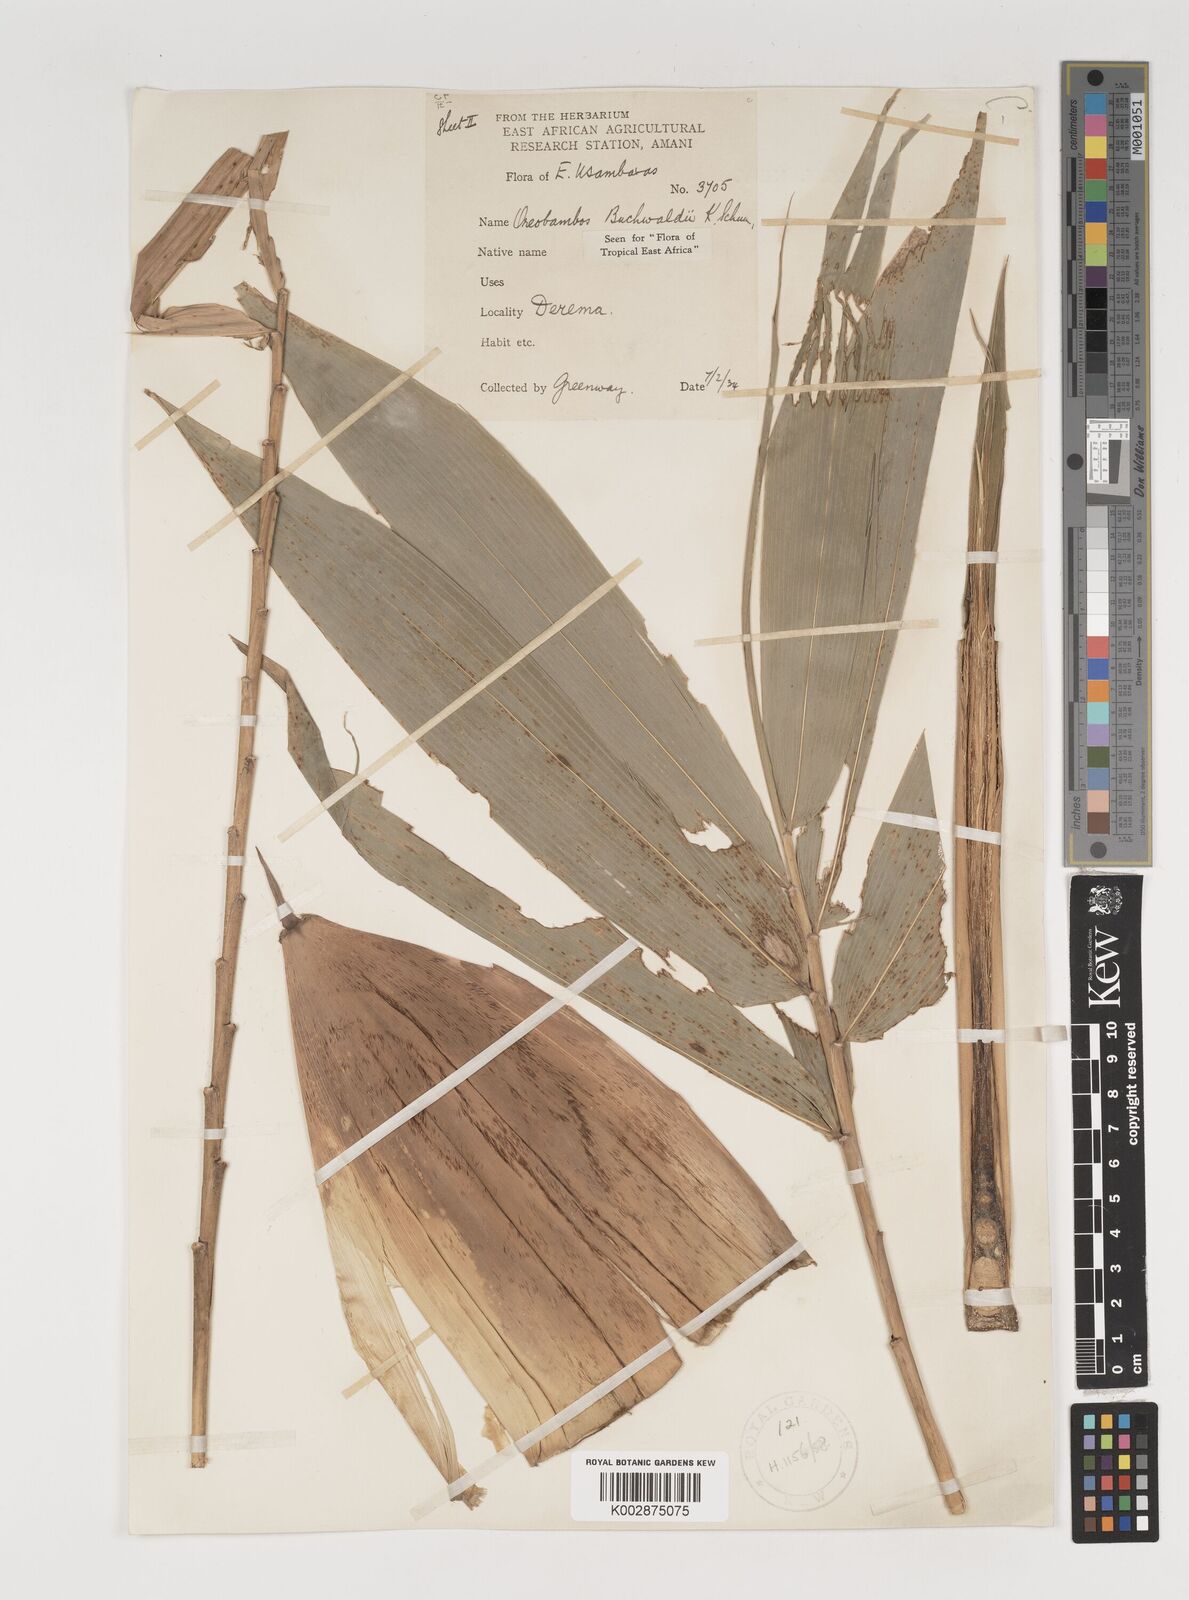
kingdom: Plantae
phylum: Tracheophyta
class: Liliopsida
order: Poales
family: Poaceae
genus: Oreobambos
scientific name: Oreobambos buchwaldii
